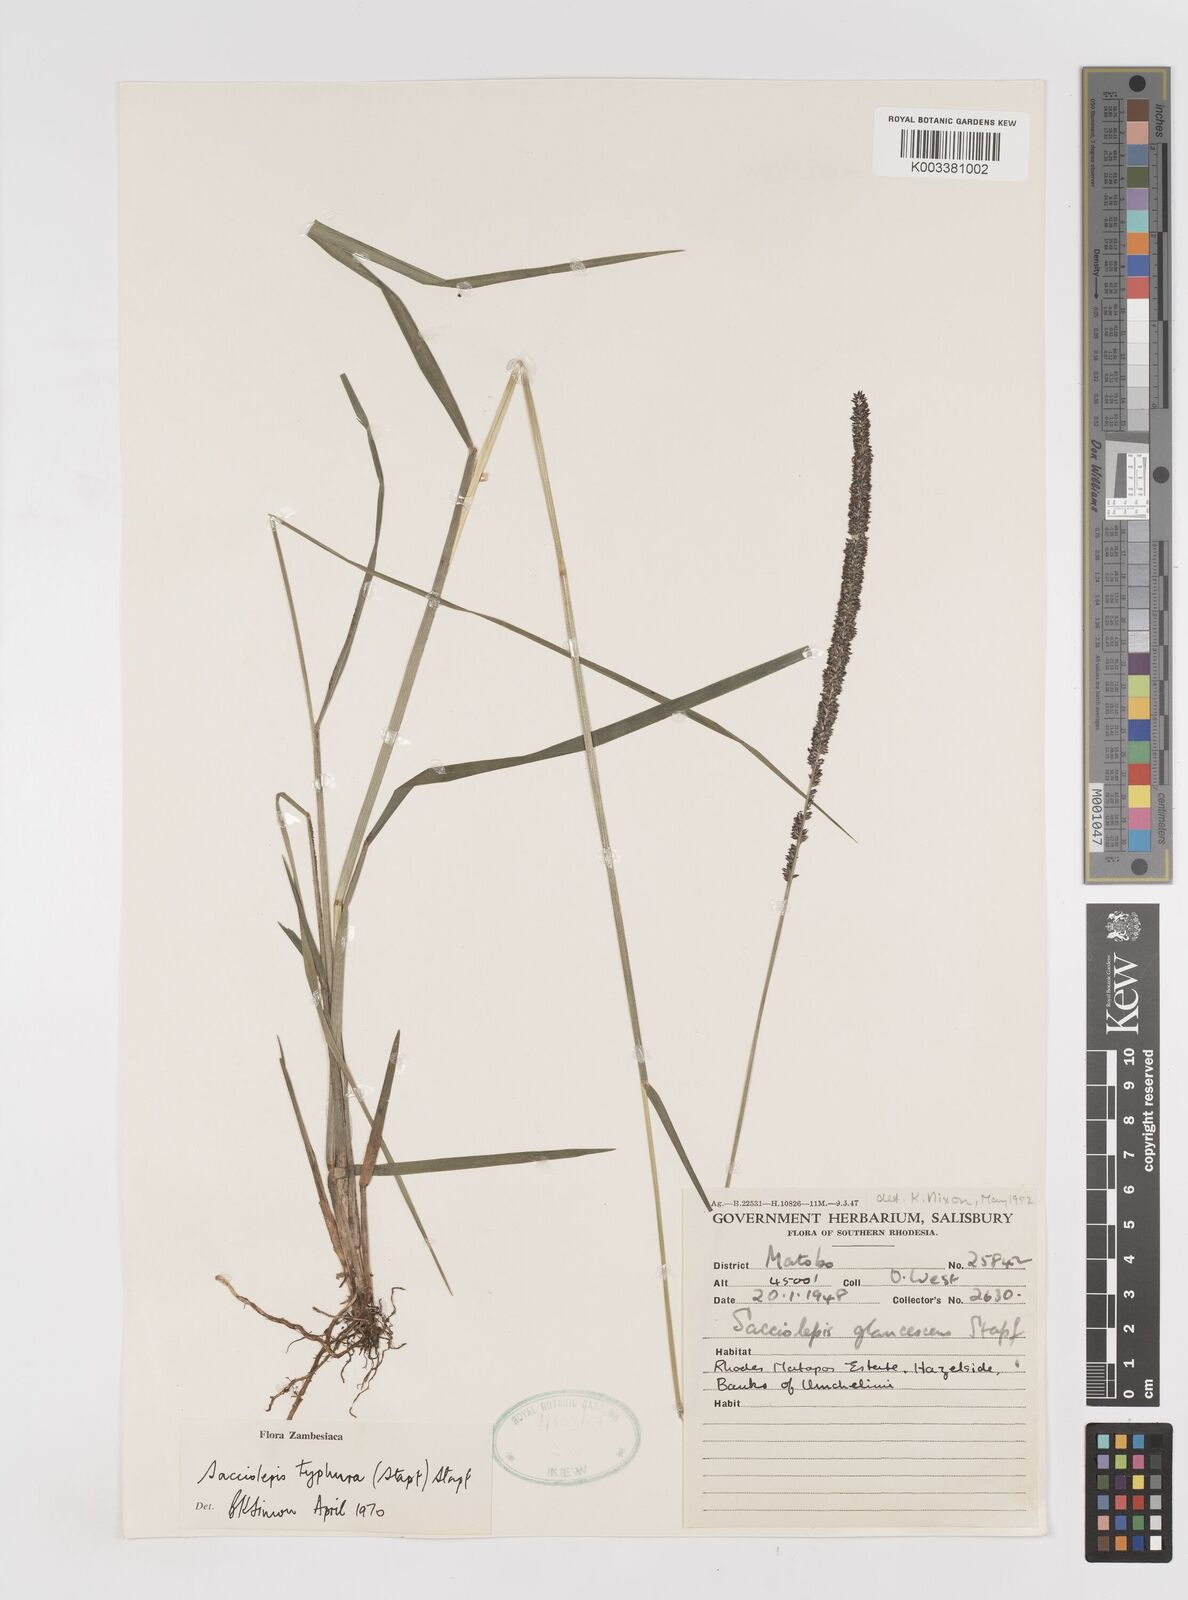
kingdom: Plantae
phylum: Tracheophyta
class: Liliopsida
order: Poales
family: Poaceae
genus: Sacciolepis
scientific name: Sacciolepis typhura
